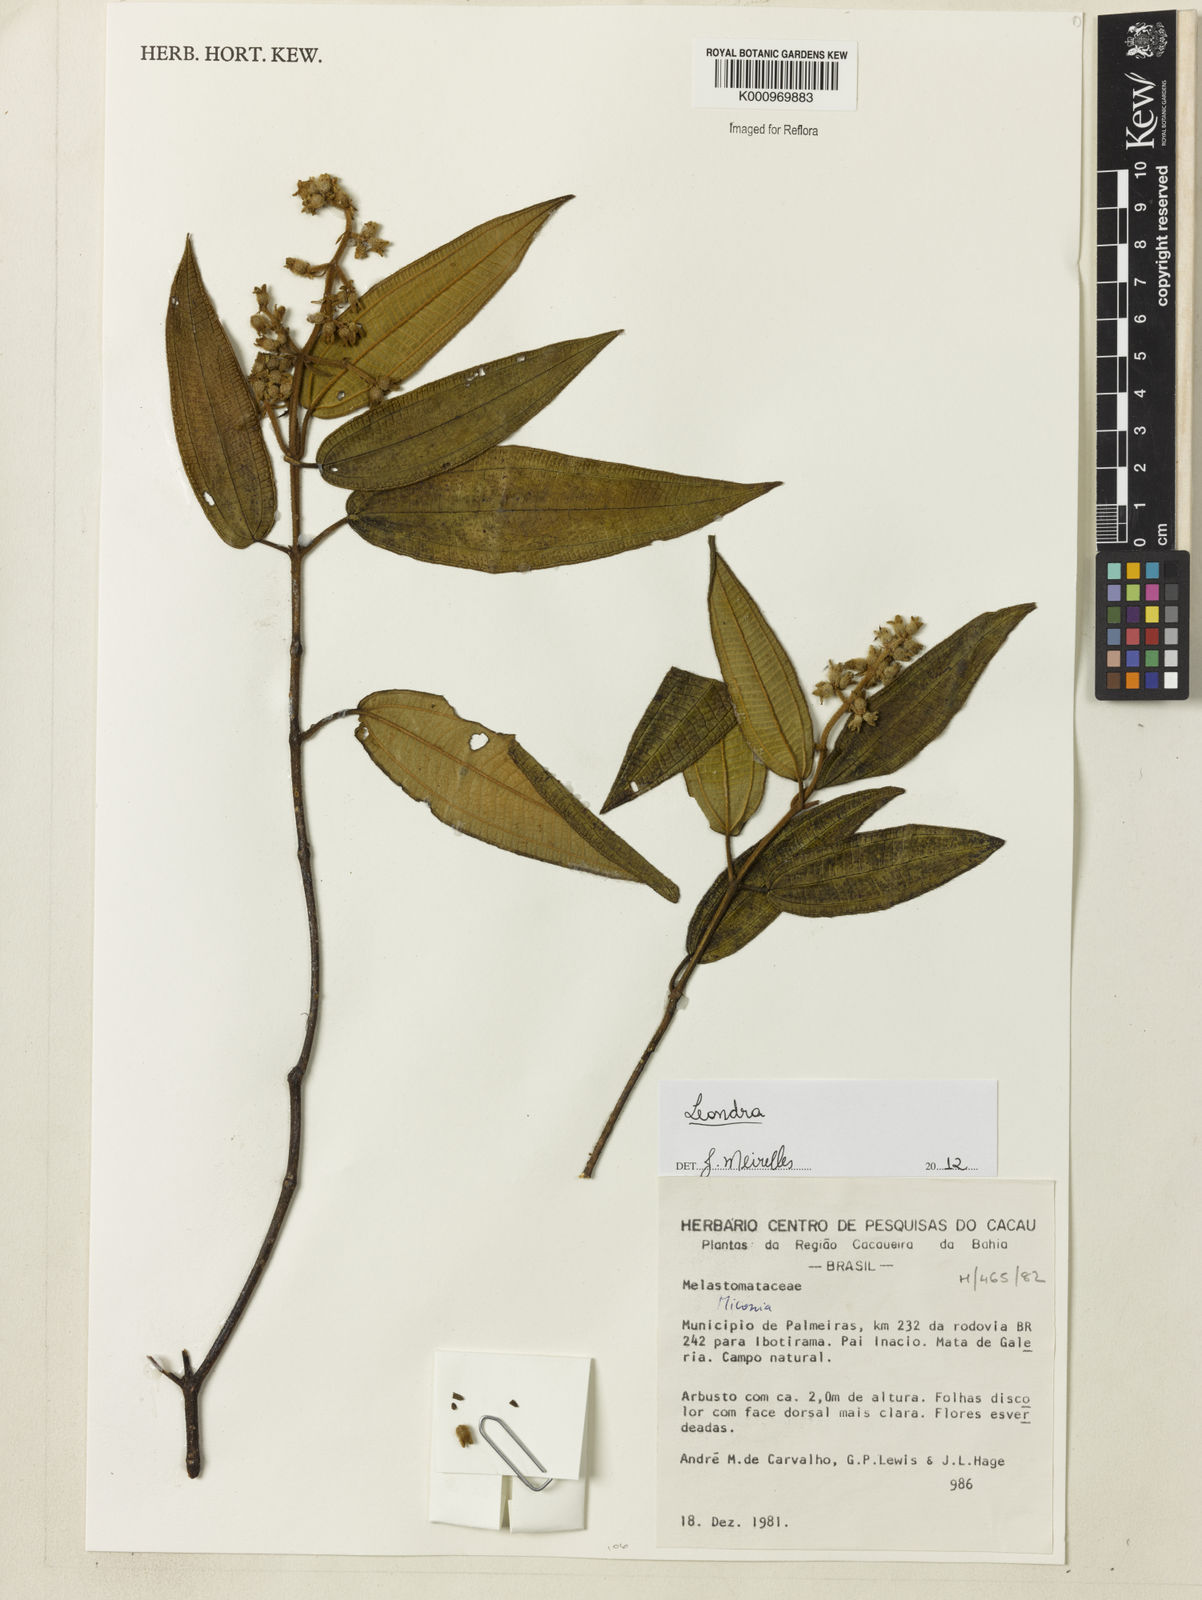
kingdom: Plantae
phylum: Tracheophyta
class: Magnoliopsida
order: Myrtales
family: Melastomataceae
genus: Miconia
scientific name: Miconia
